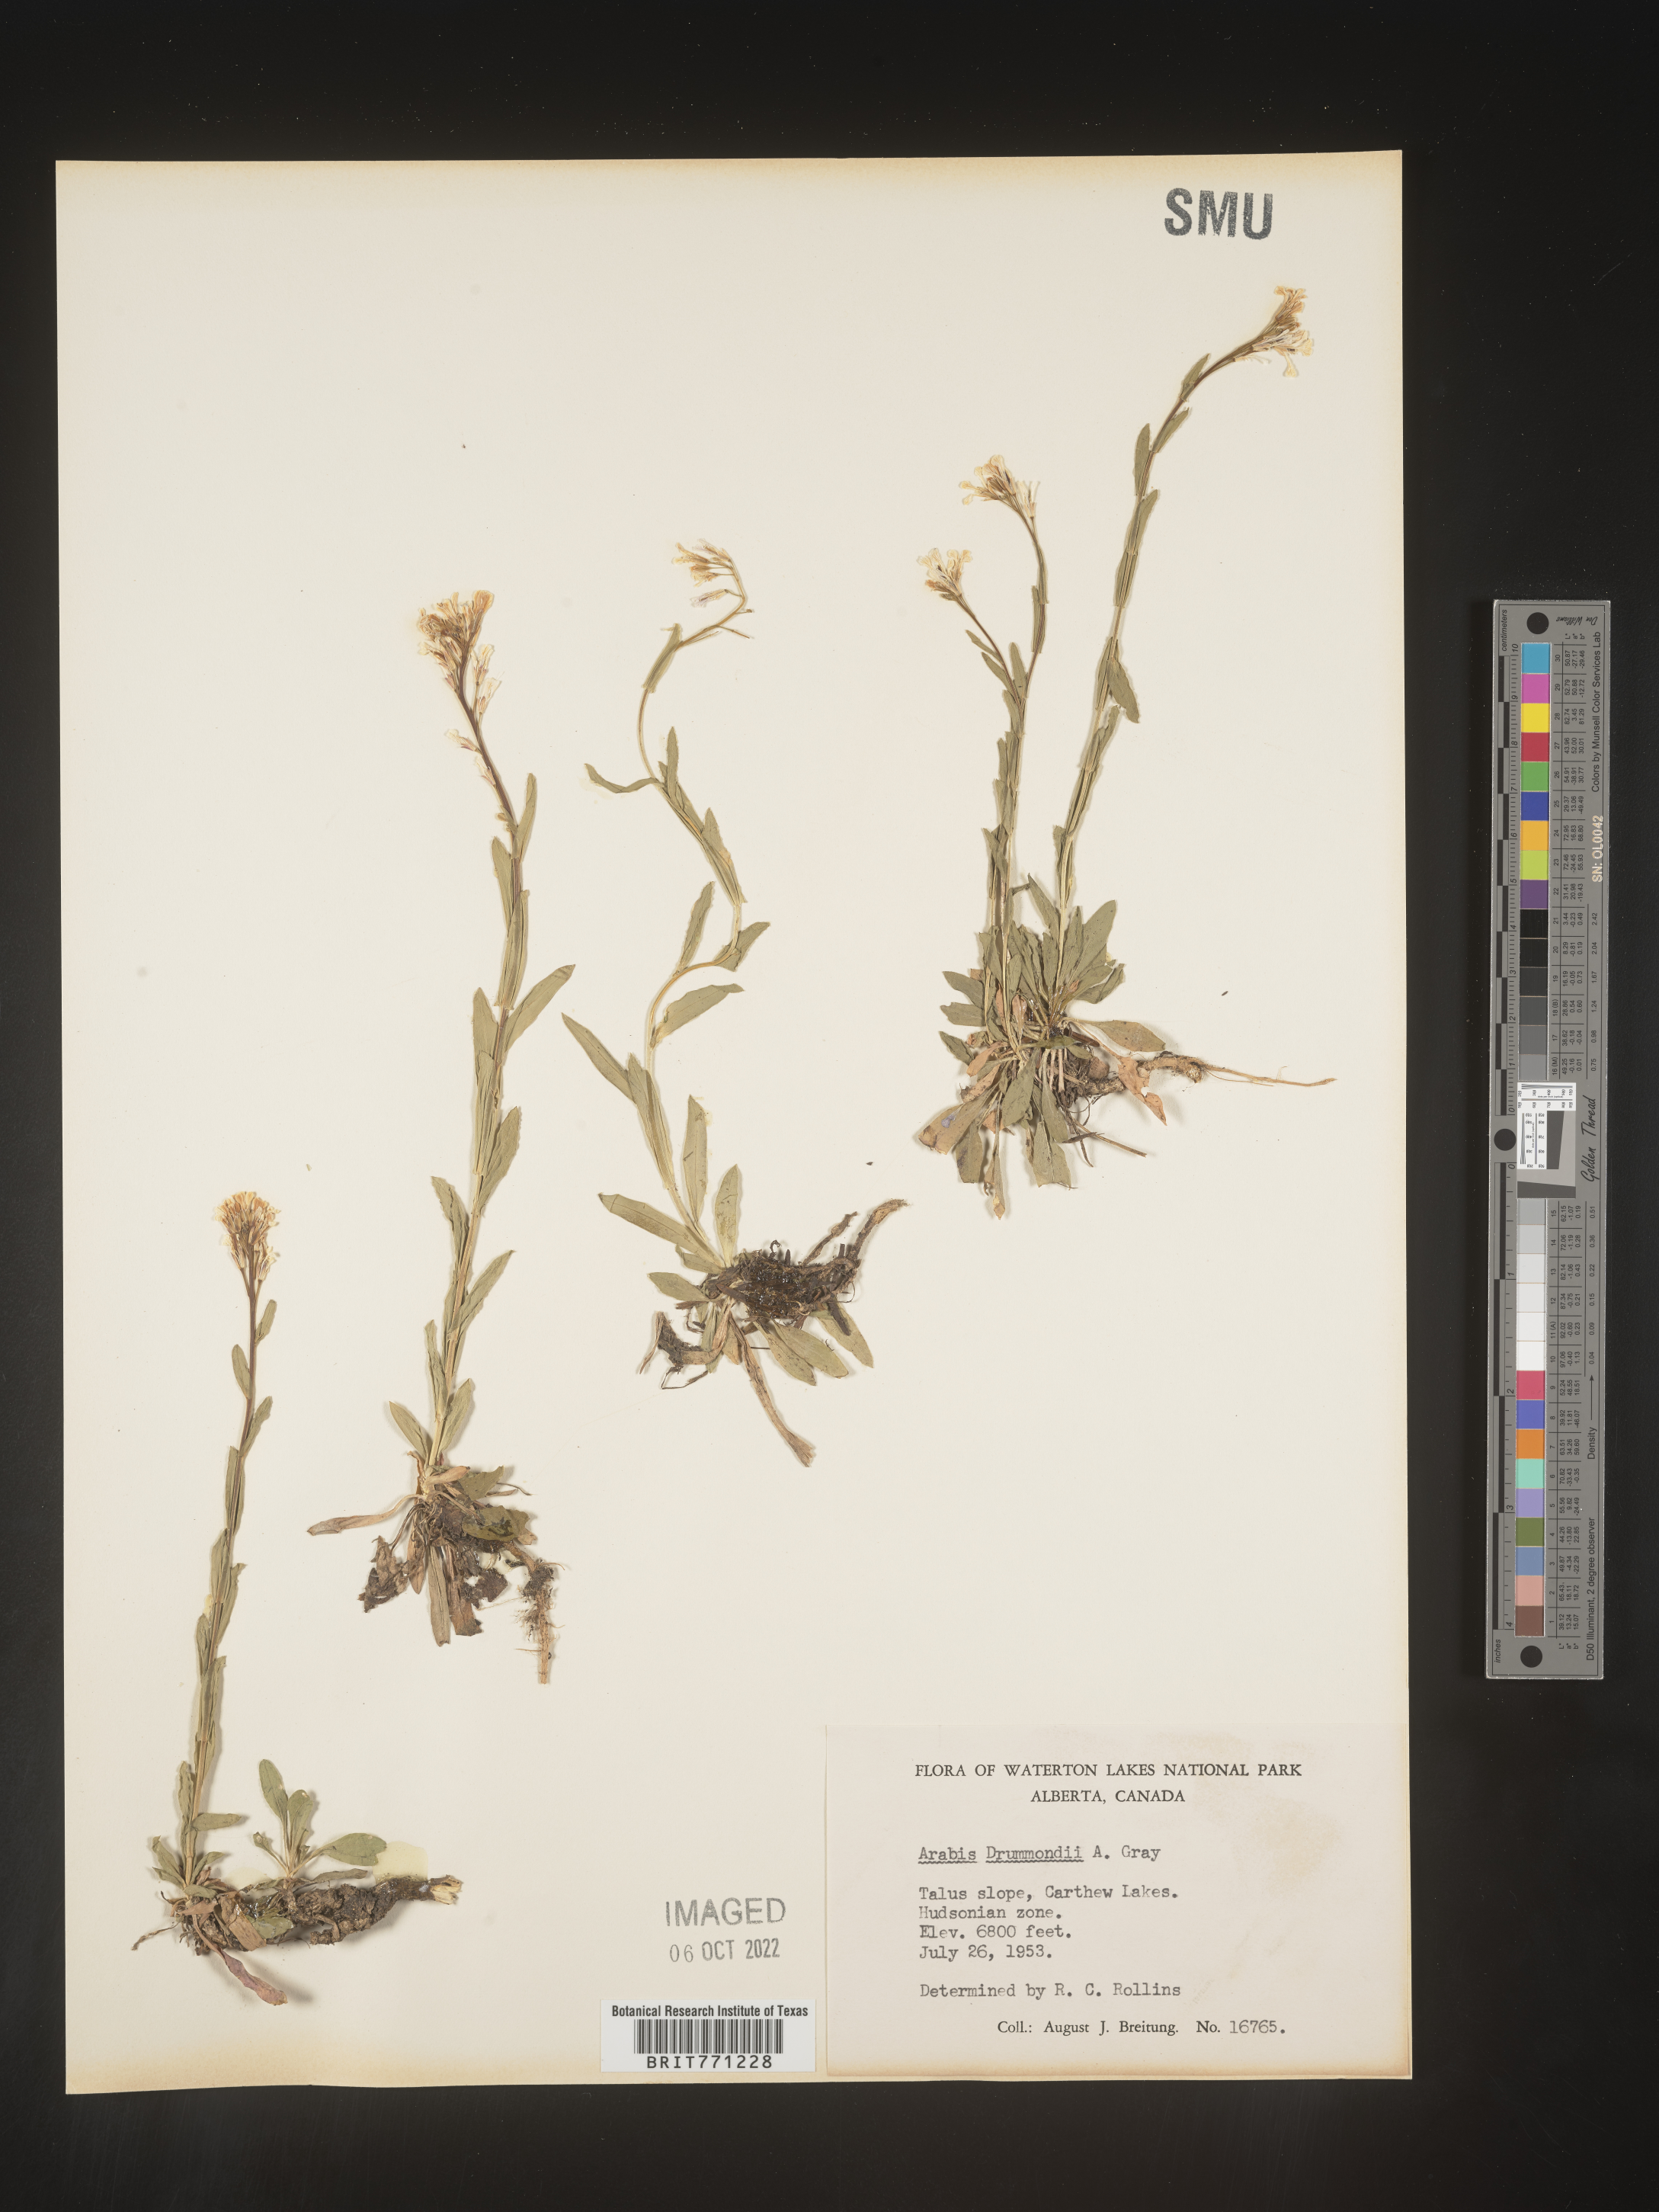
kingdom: Plantae
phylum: Tracheophyta
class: Magnoliopsida
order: Brassicales
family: Brassicaceae
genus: Boechera
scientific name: Boechera stricta
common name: Canadian rockcress
